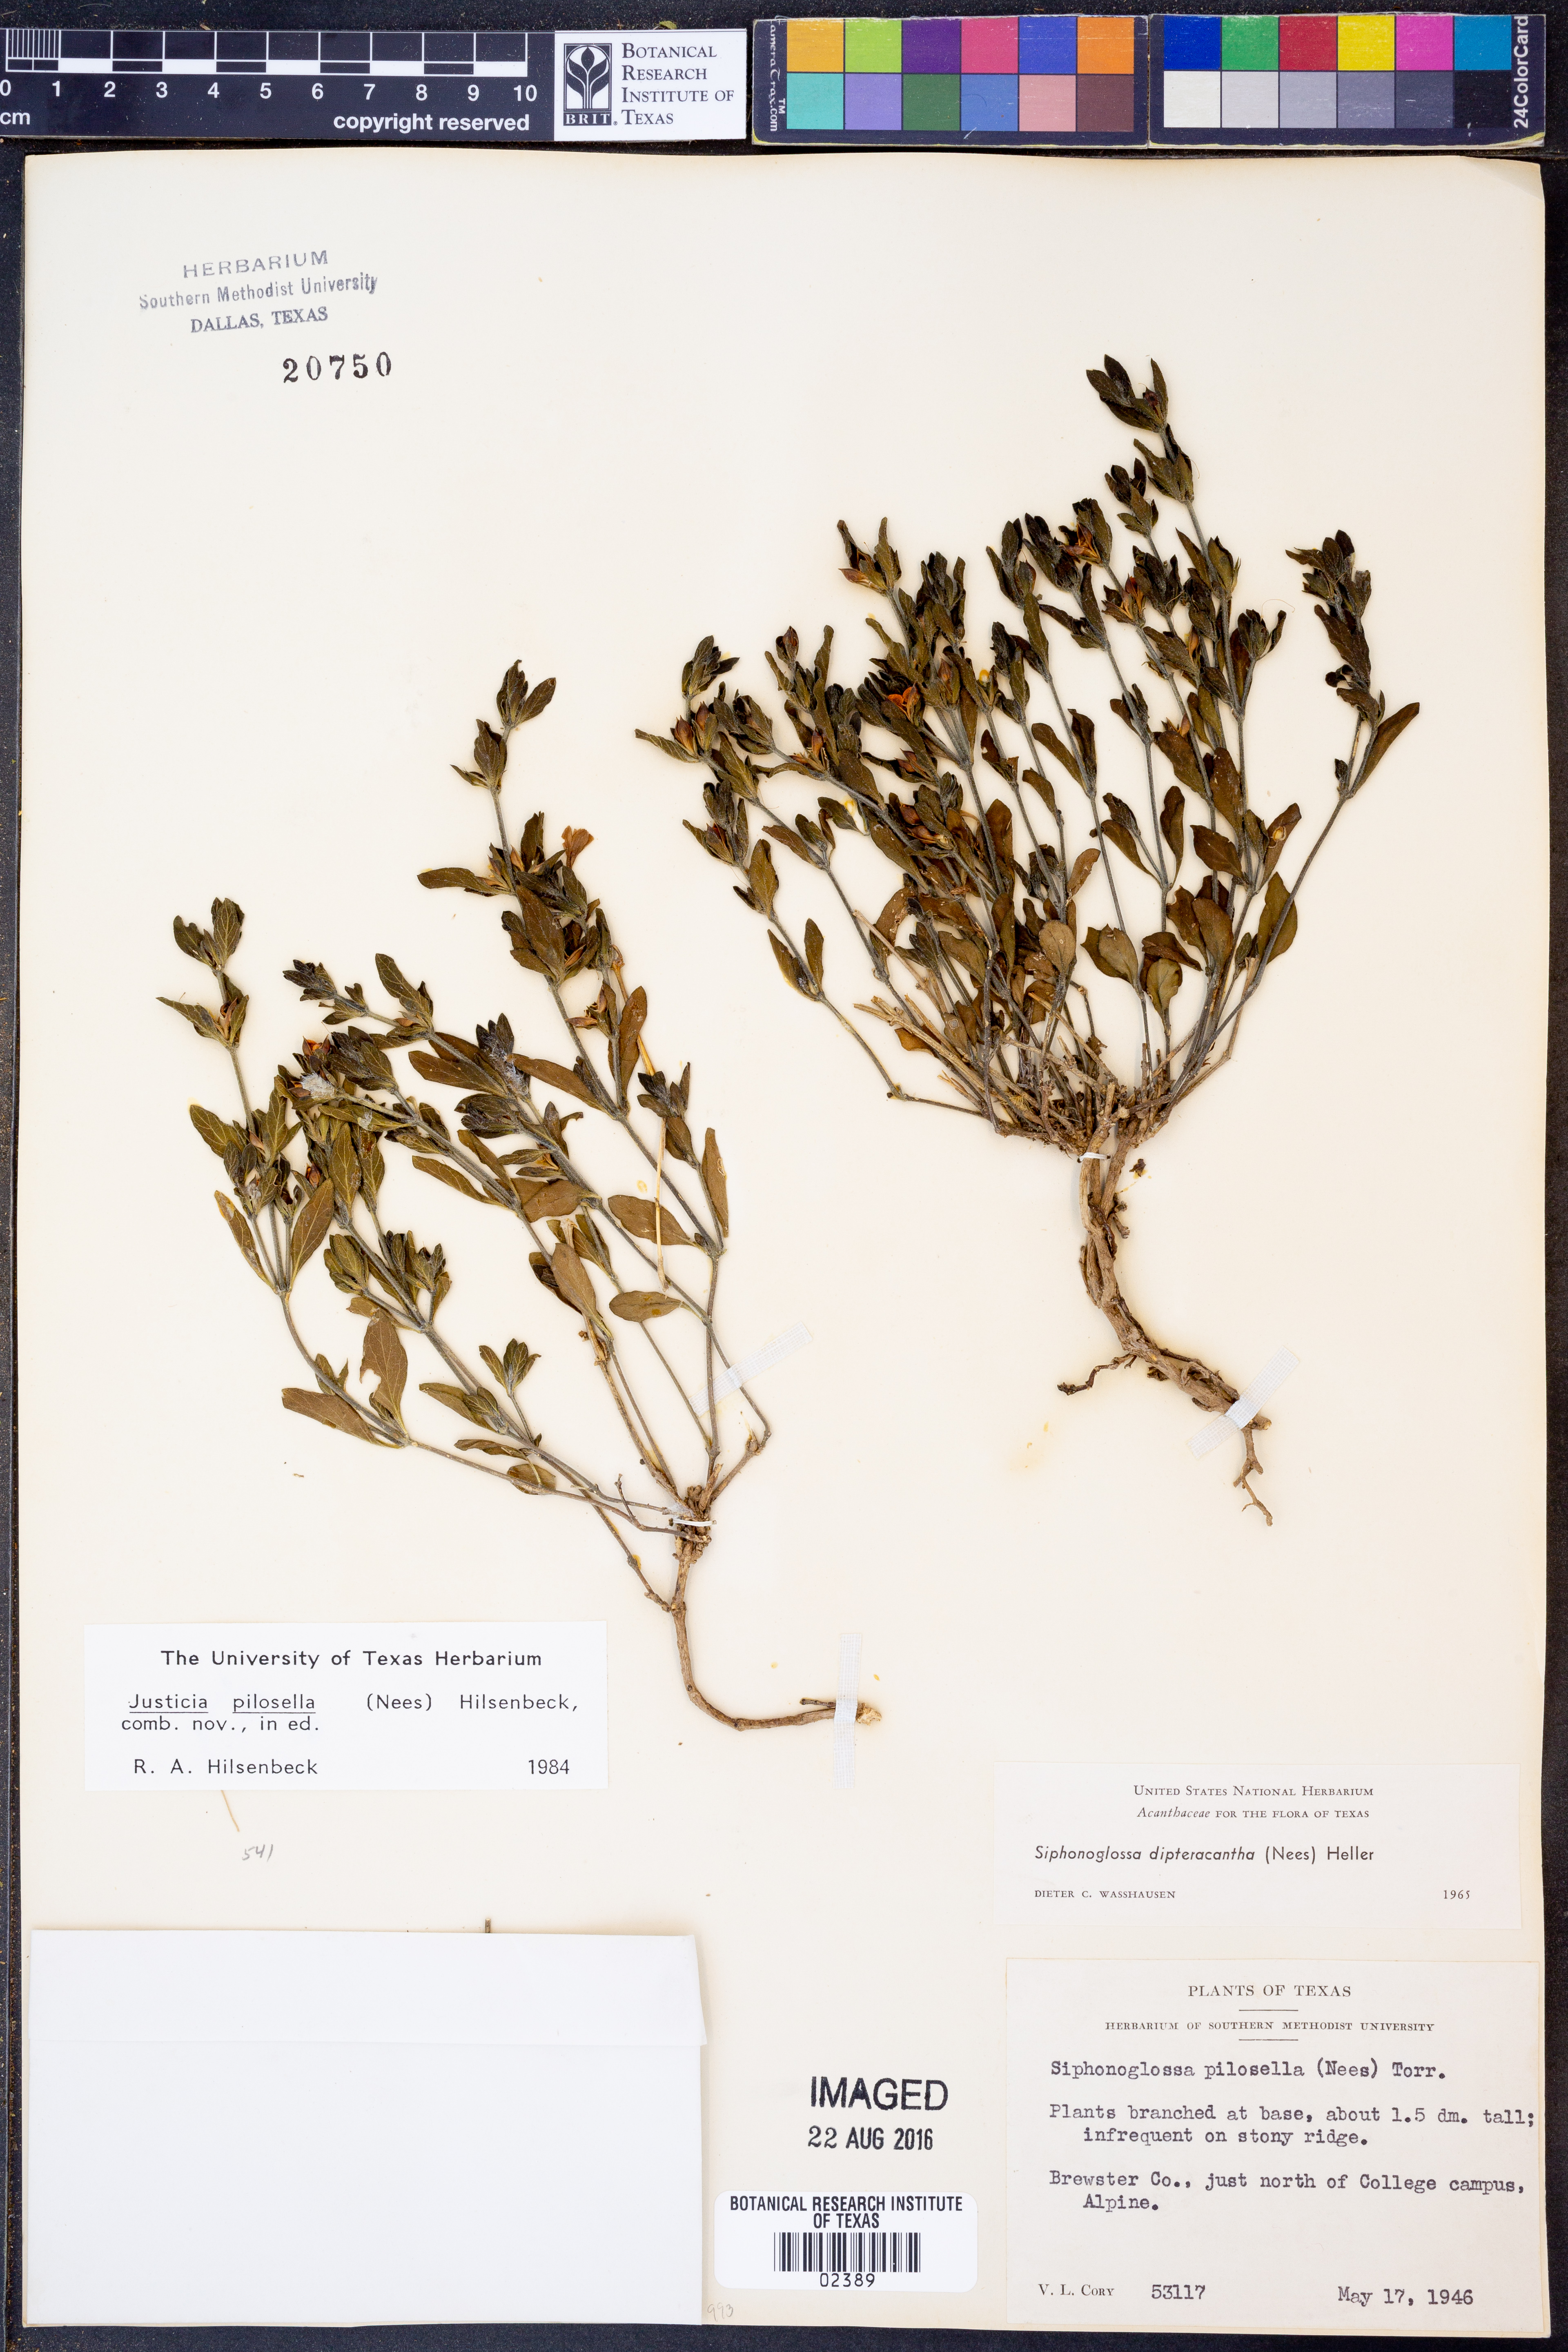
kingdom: Plantae
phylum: Tracheophyta
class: Magnoliopsida
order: Lamiales
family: Acanthaceae
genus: Justicia
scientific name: Justicia pilosella
